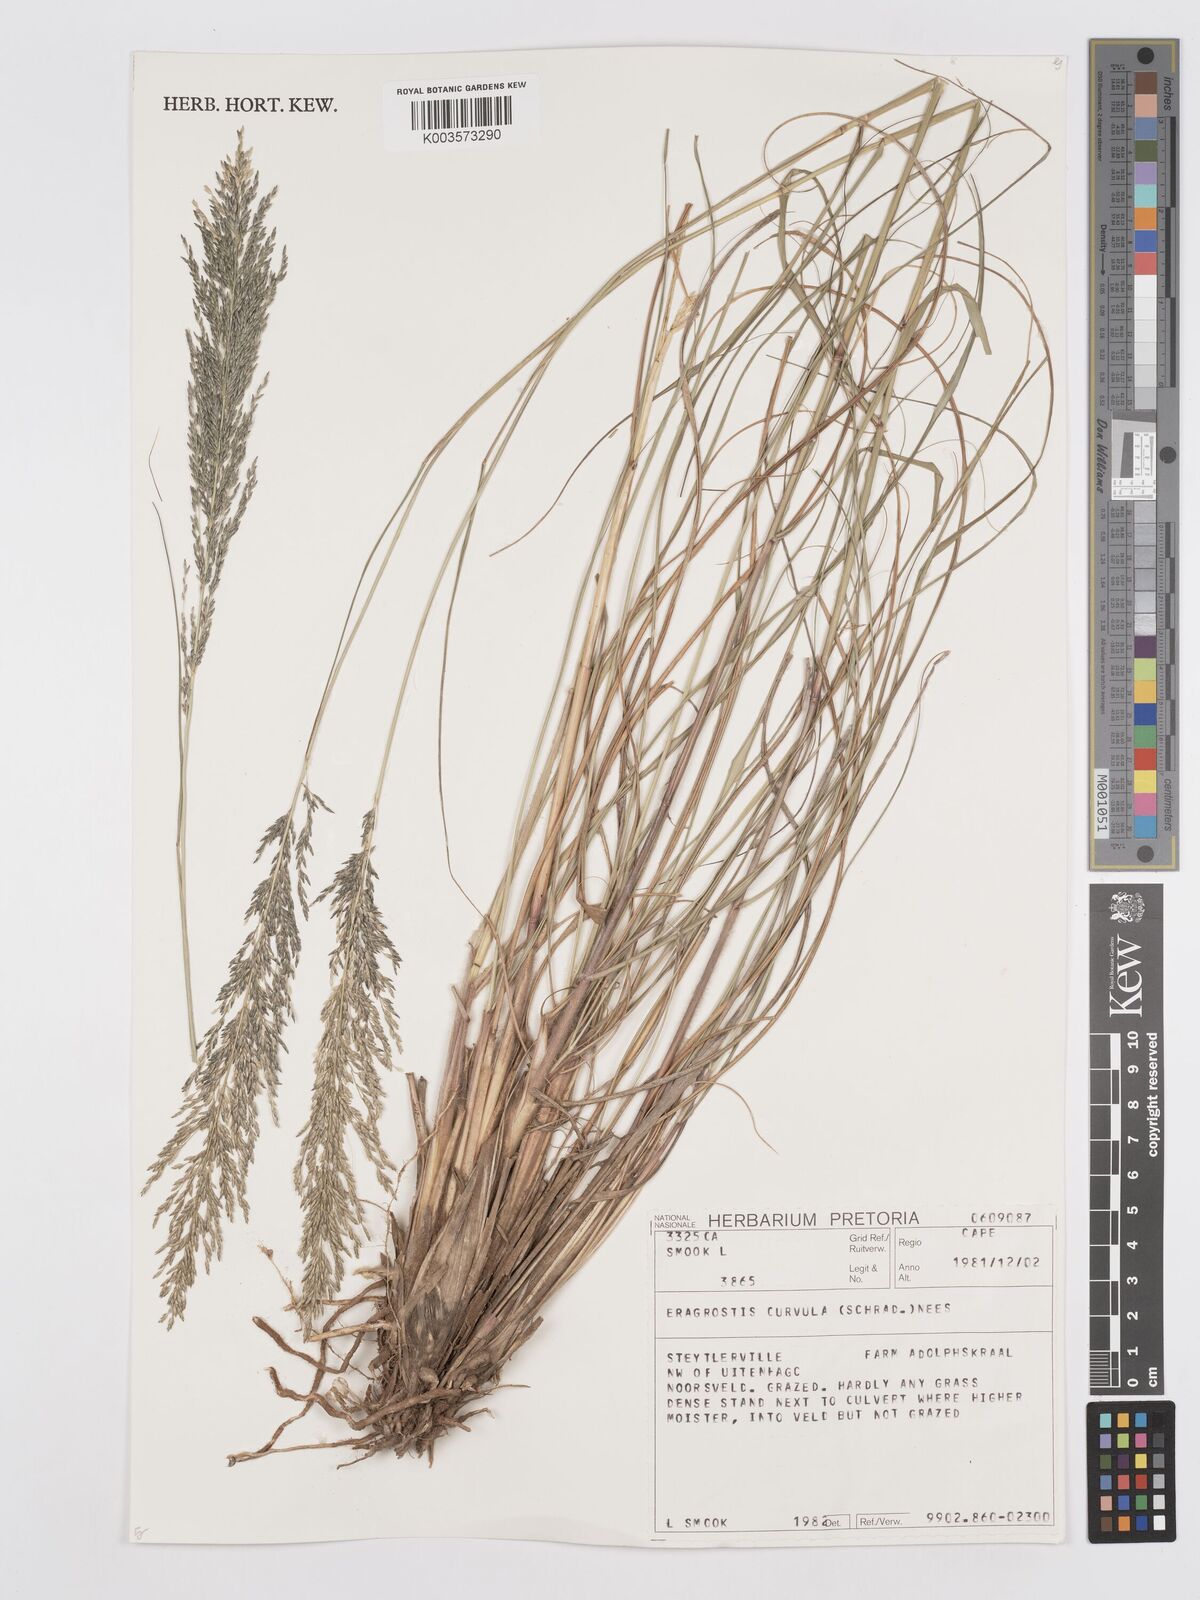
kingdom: Plantae
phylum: Tracheophyta
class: Liliopsida
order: Poales
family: Poaceae
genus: Eragrostis
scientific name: Eragrostis curvula
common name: African love-grass
